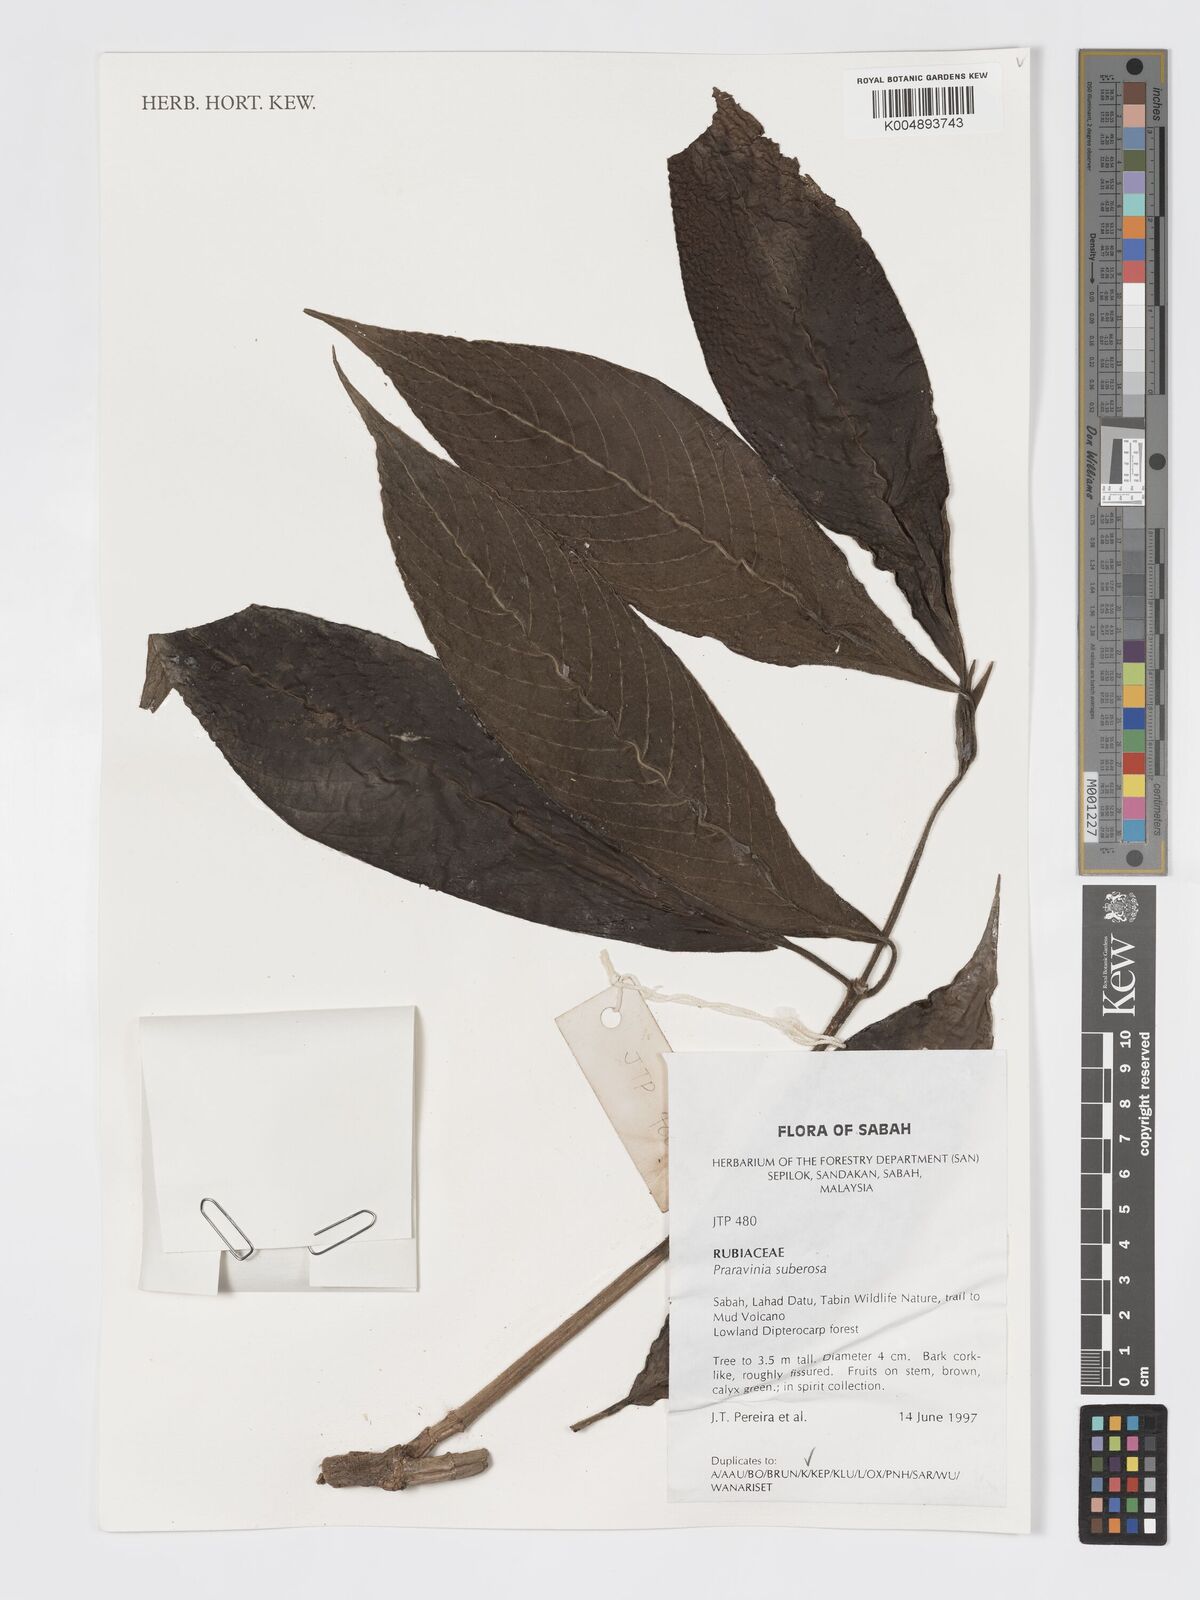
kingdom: Plantae
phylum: Tracheophyta
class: Magnoliopsida
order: Gentianales
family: Rubiaceae
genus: Praravinia
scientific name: Praravinia suberosa
